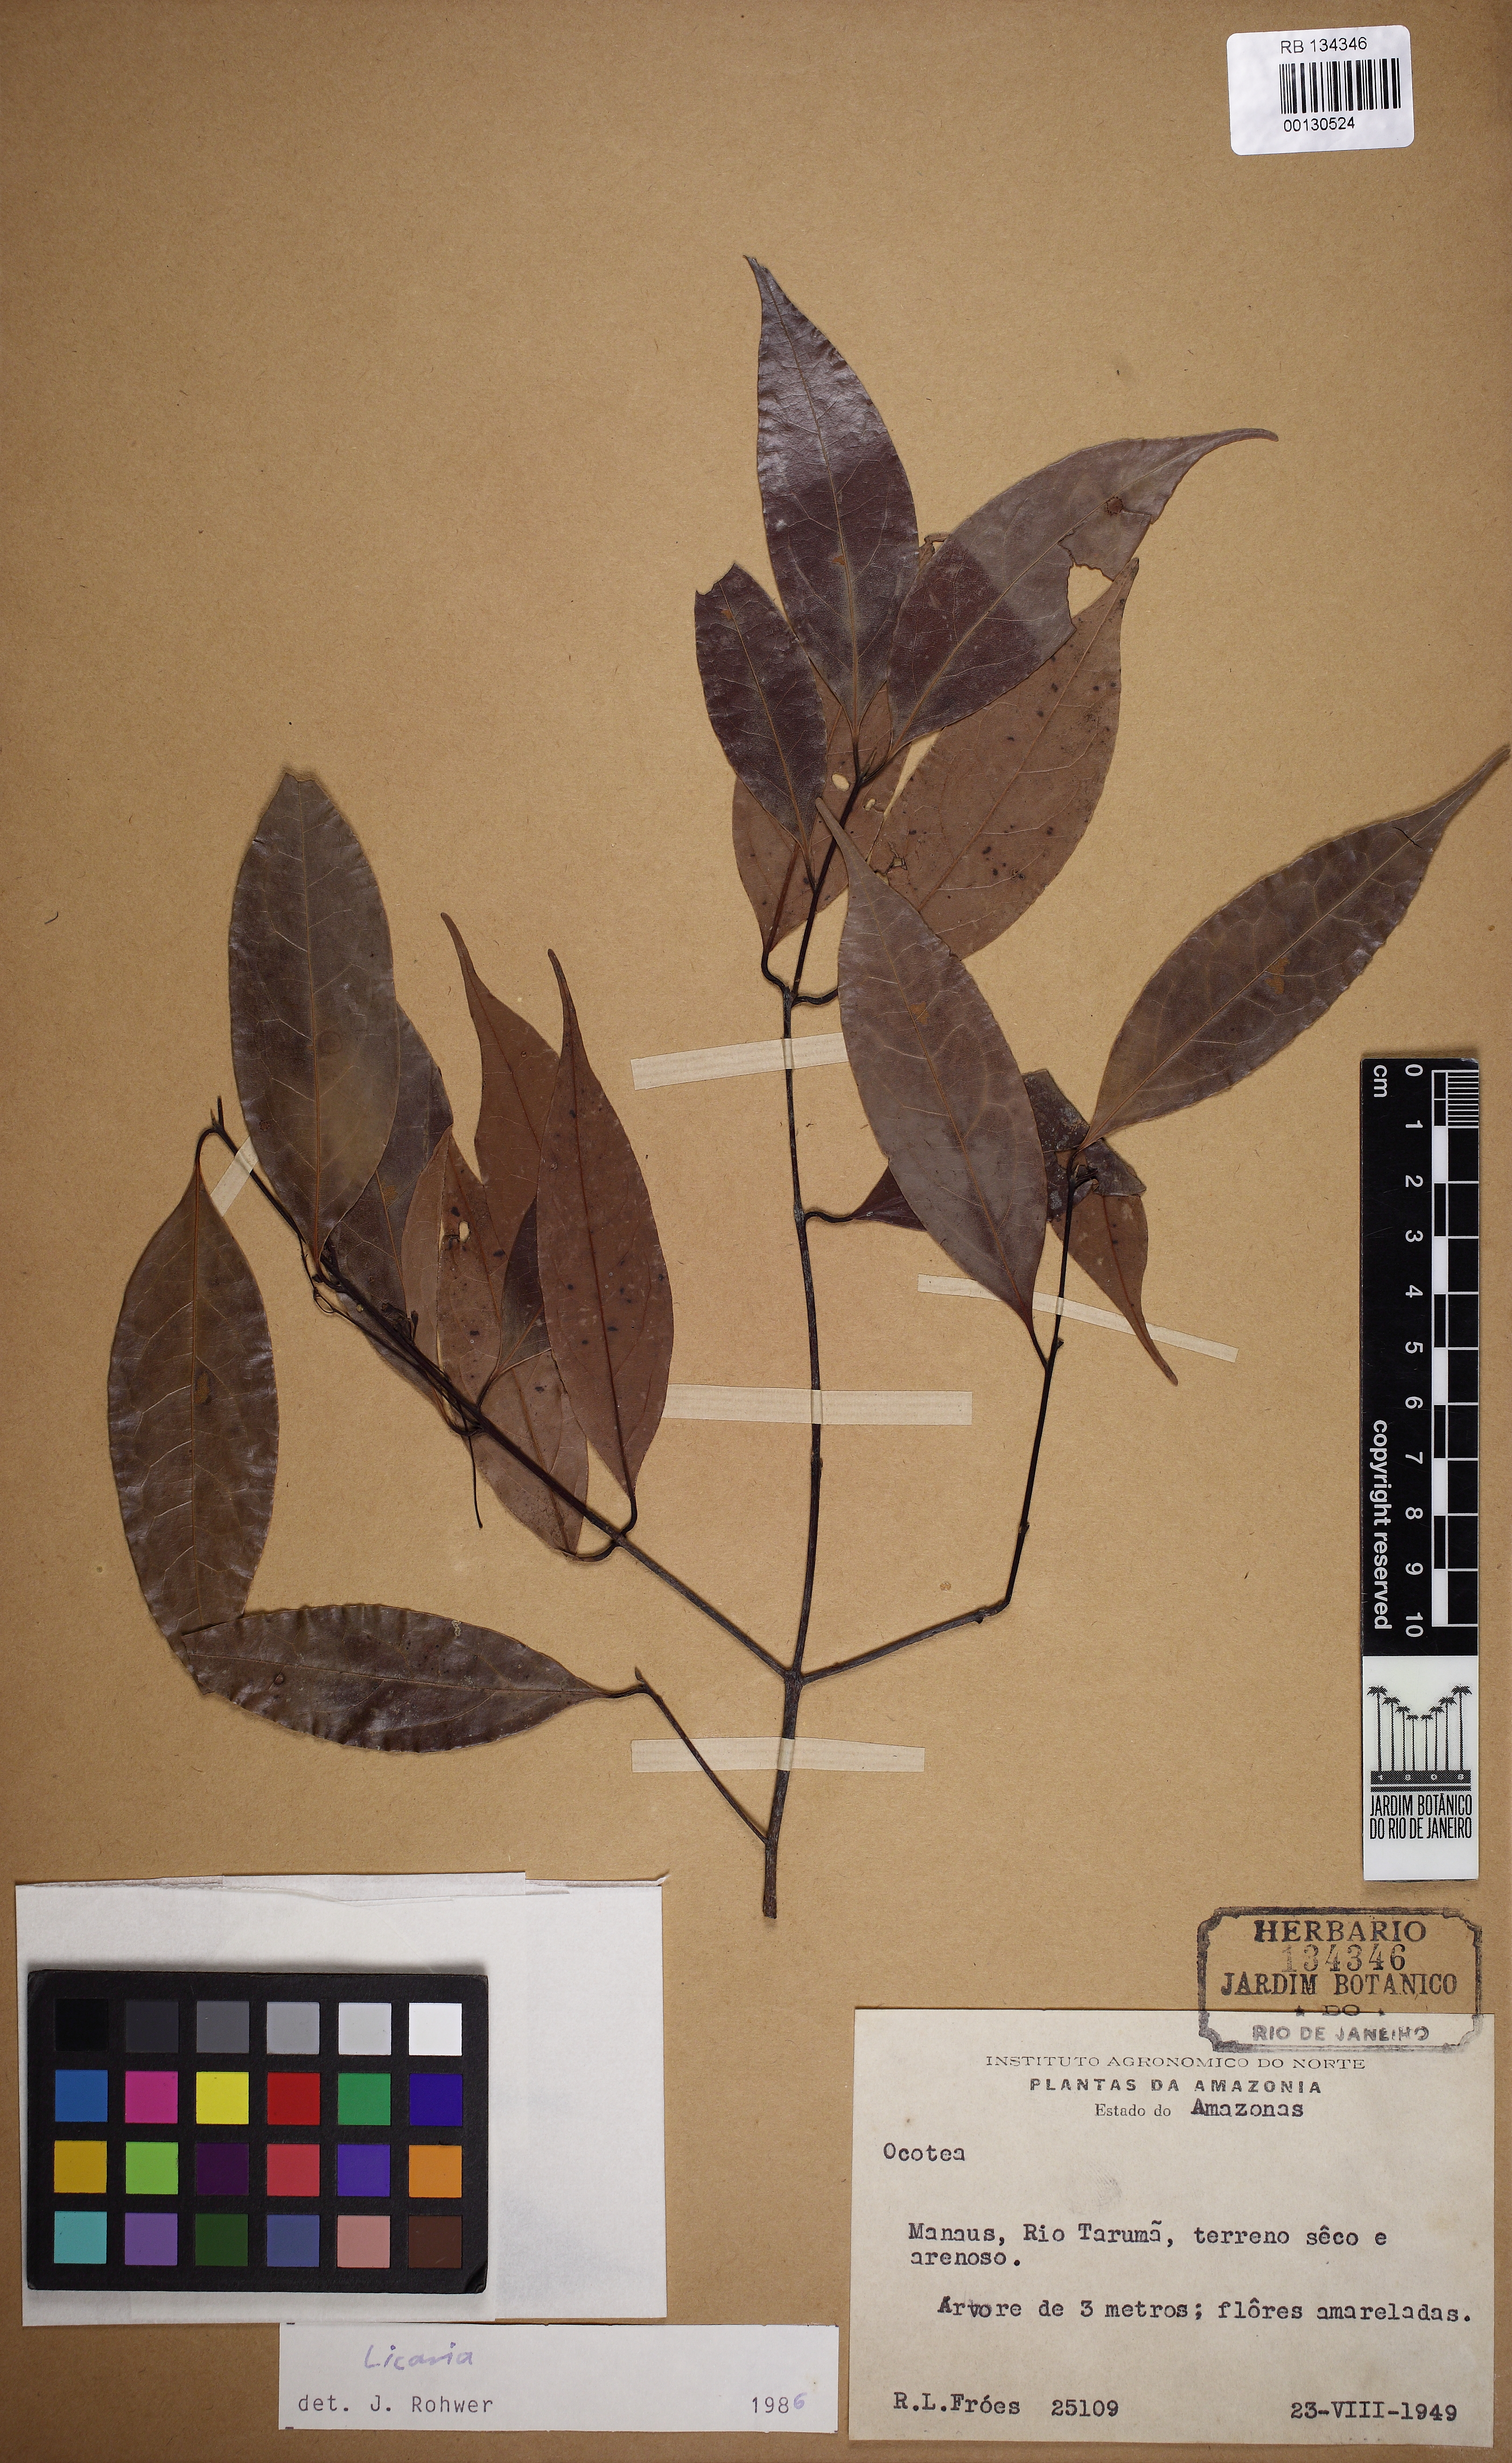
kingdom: Plantae
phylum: Tracheophyta
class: Magnoliopsida
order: Laurales
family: Lauraceae
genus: Licaria
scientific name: Licaria
